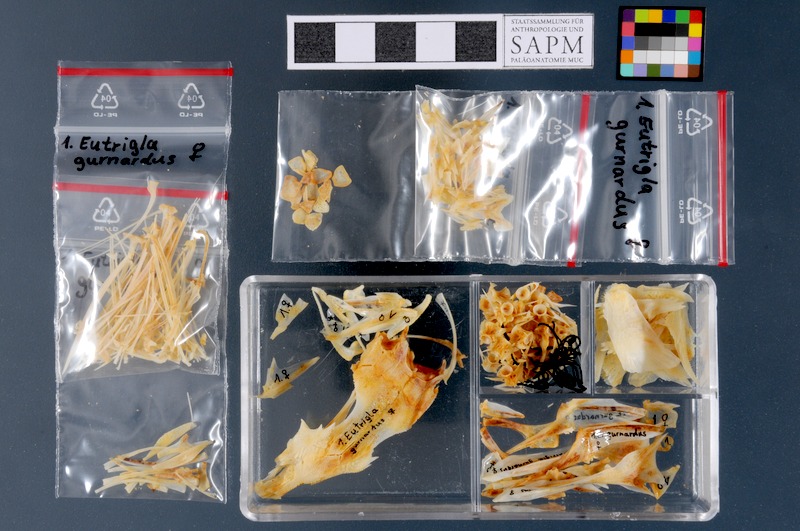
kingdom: Animalia
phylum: Chordata
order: Scorpaeniformes
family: Triglidae
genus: Eutrigla
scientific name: Eutrigla gurnardus
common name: Grey gurnard
